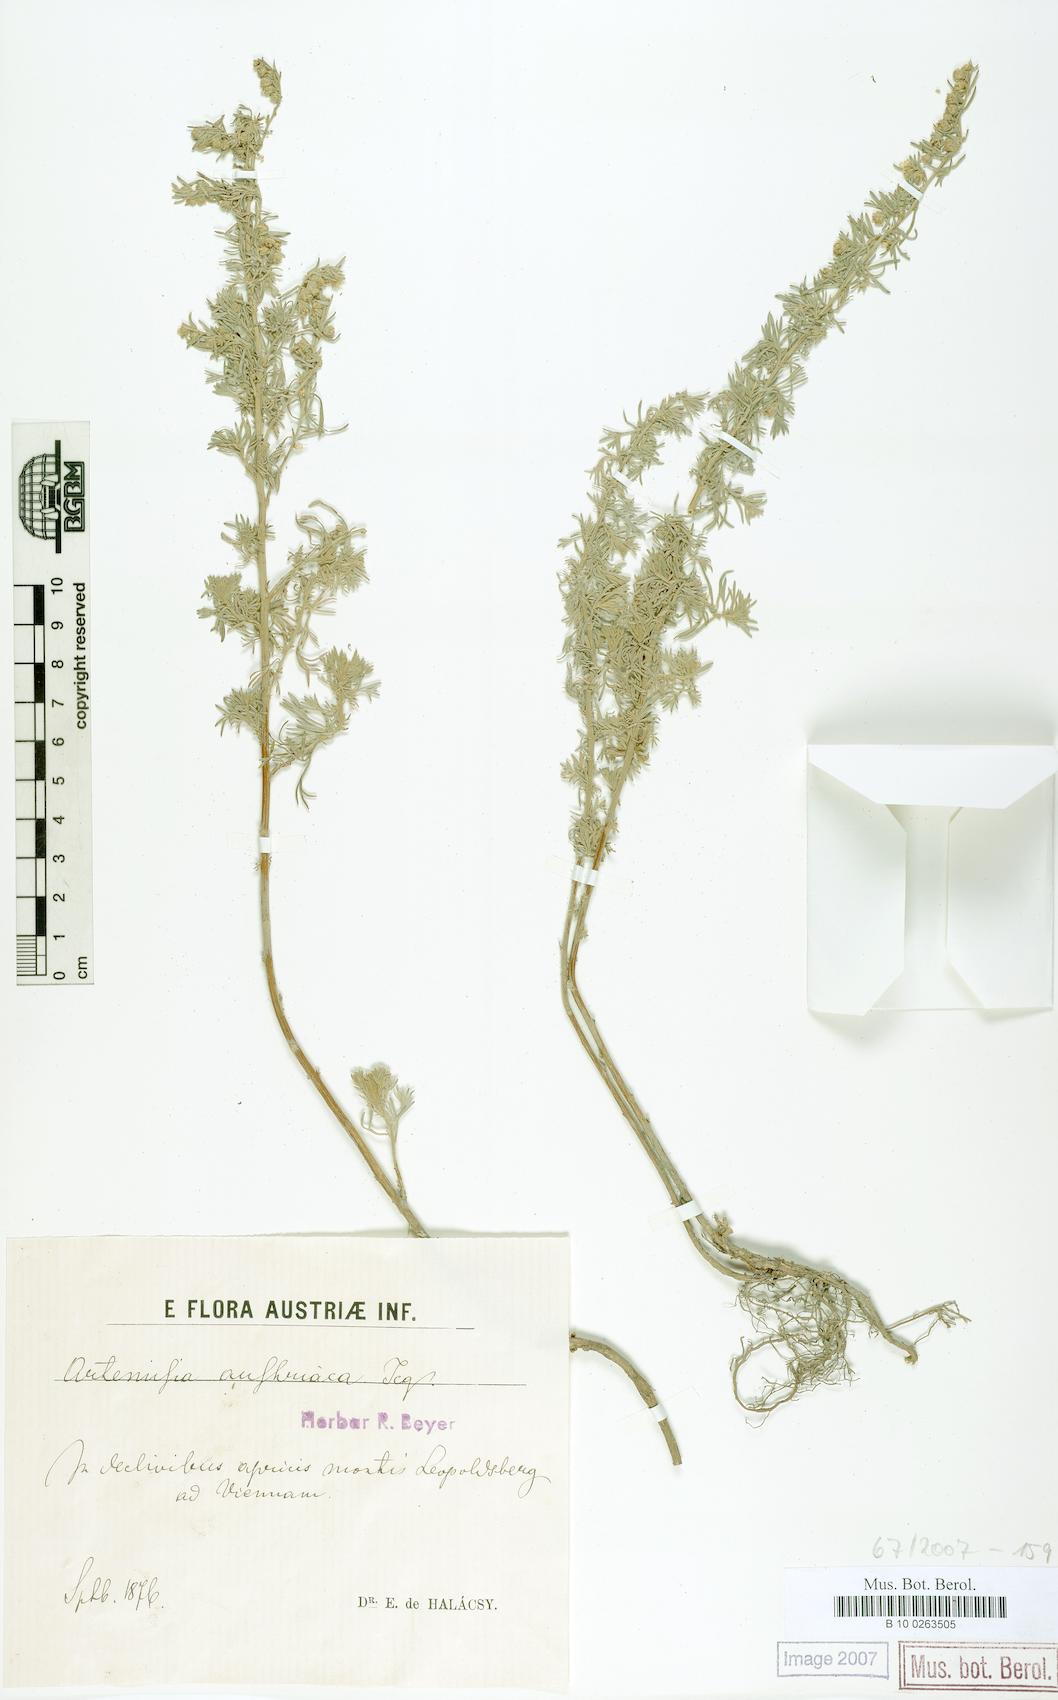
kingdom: Plantae
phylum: Tracheophyta
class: Magnoliopsida
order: Asterales
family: Asteraceae
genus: Artemisia
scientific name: Artemisia austriaca
